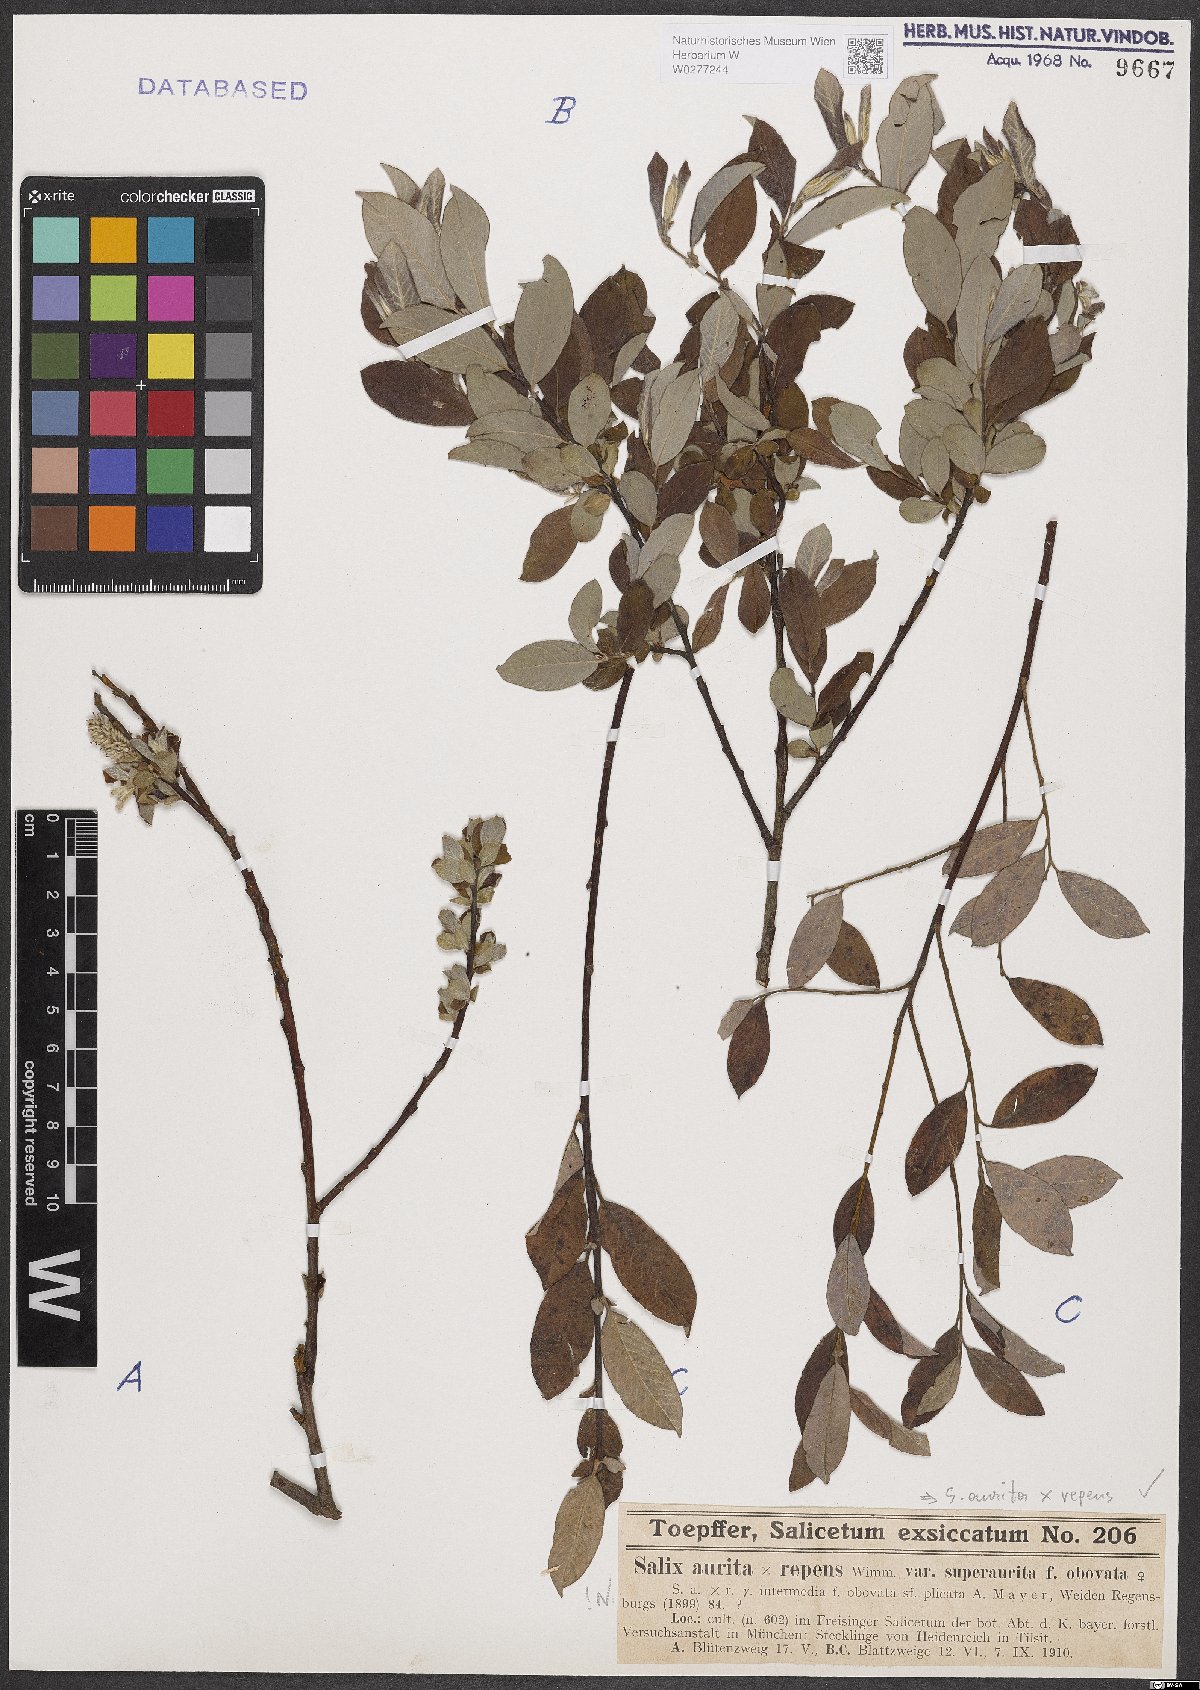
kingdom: Plantae
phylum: Tracheophyta
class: Magnoliopsida
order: Malpighiales
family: Salicaceae
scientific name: Salicaceae
